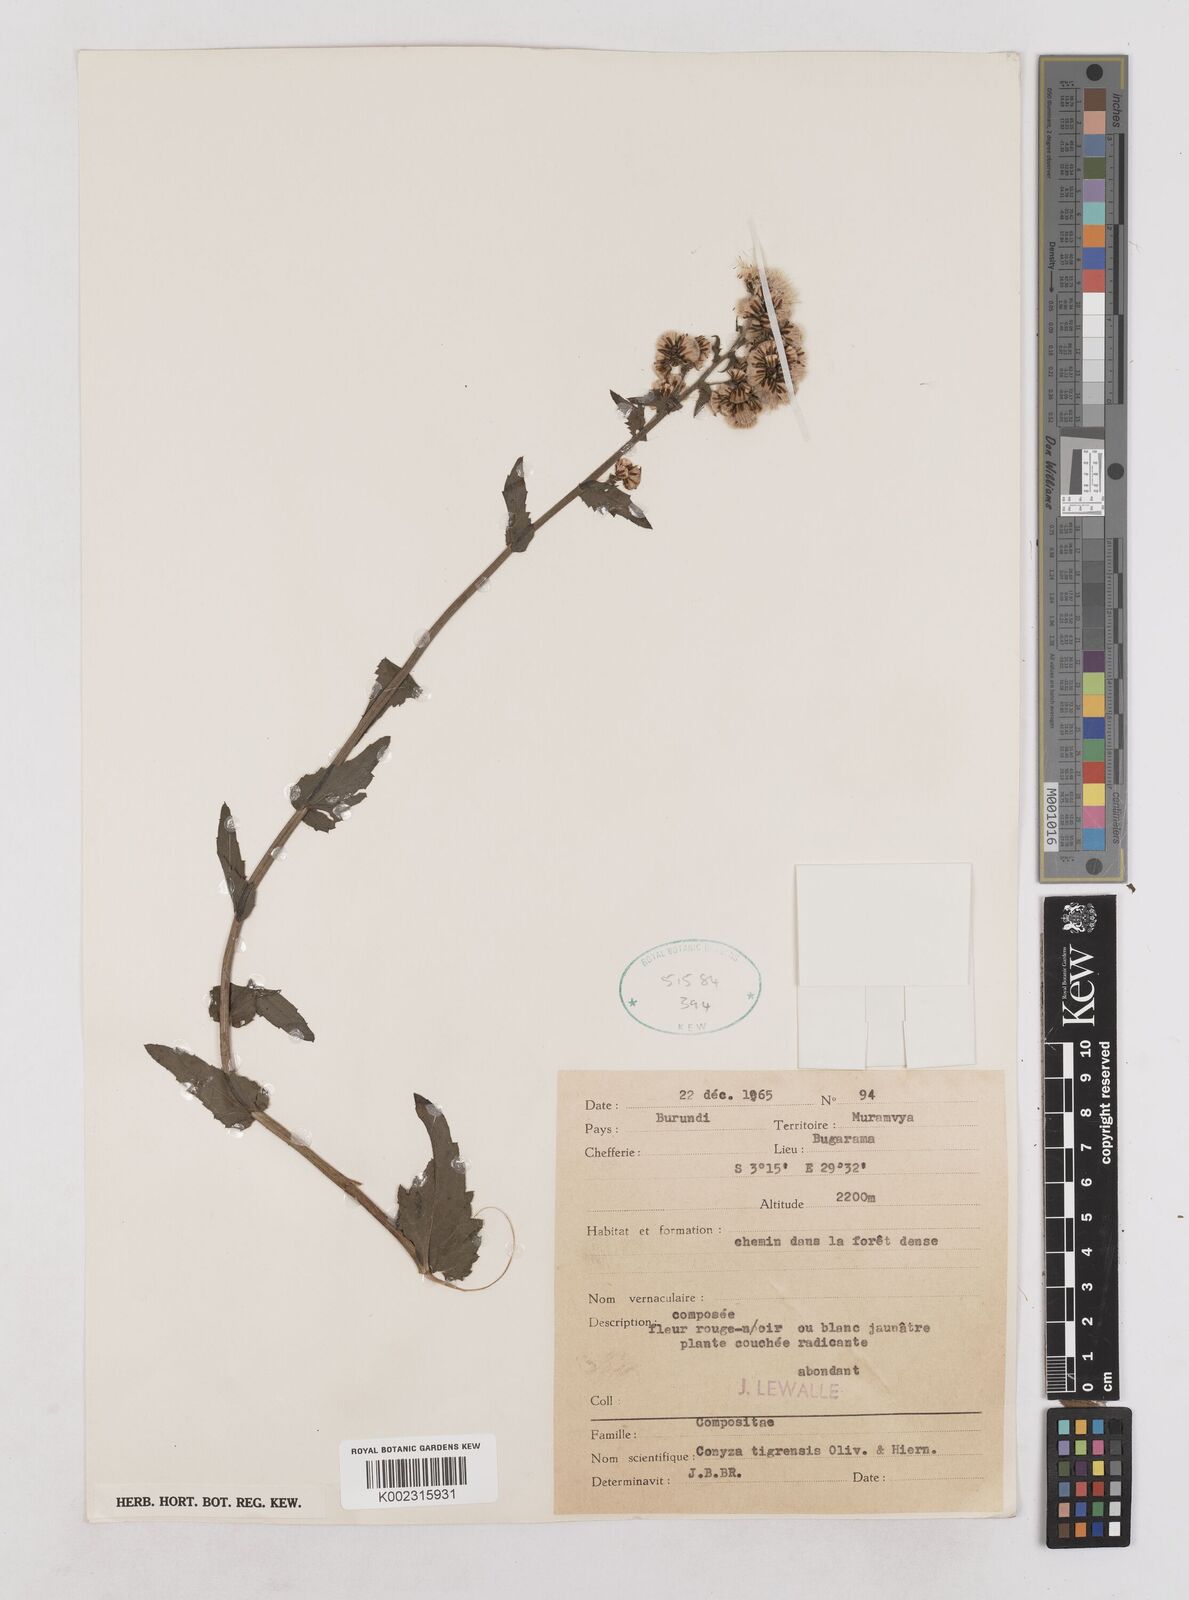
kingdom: Plantae
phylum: Tracheophyta
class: Magnoliopsida
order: Asterales
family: Asteraceae
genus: Eschenbachia
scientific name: Eschenbachia tigrensis
